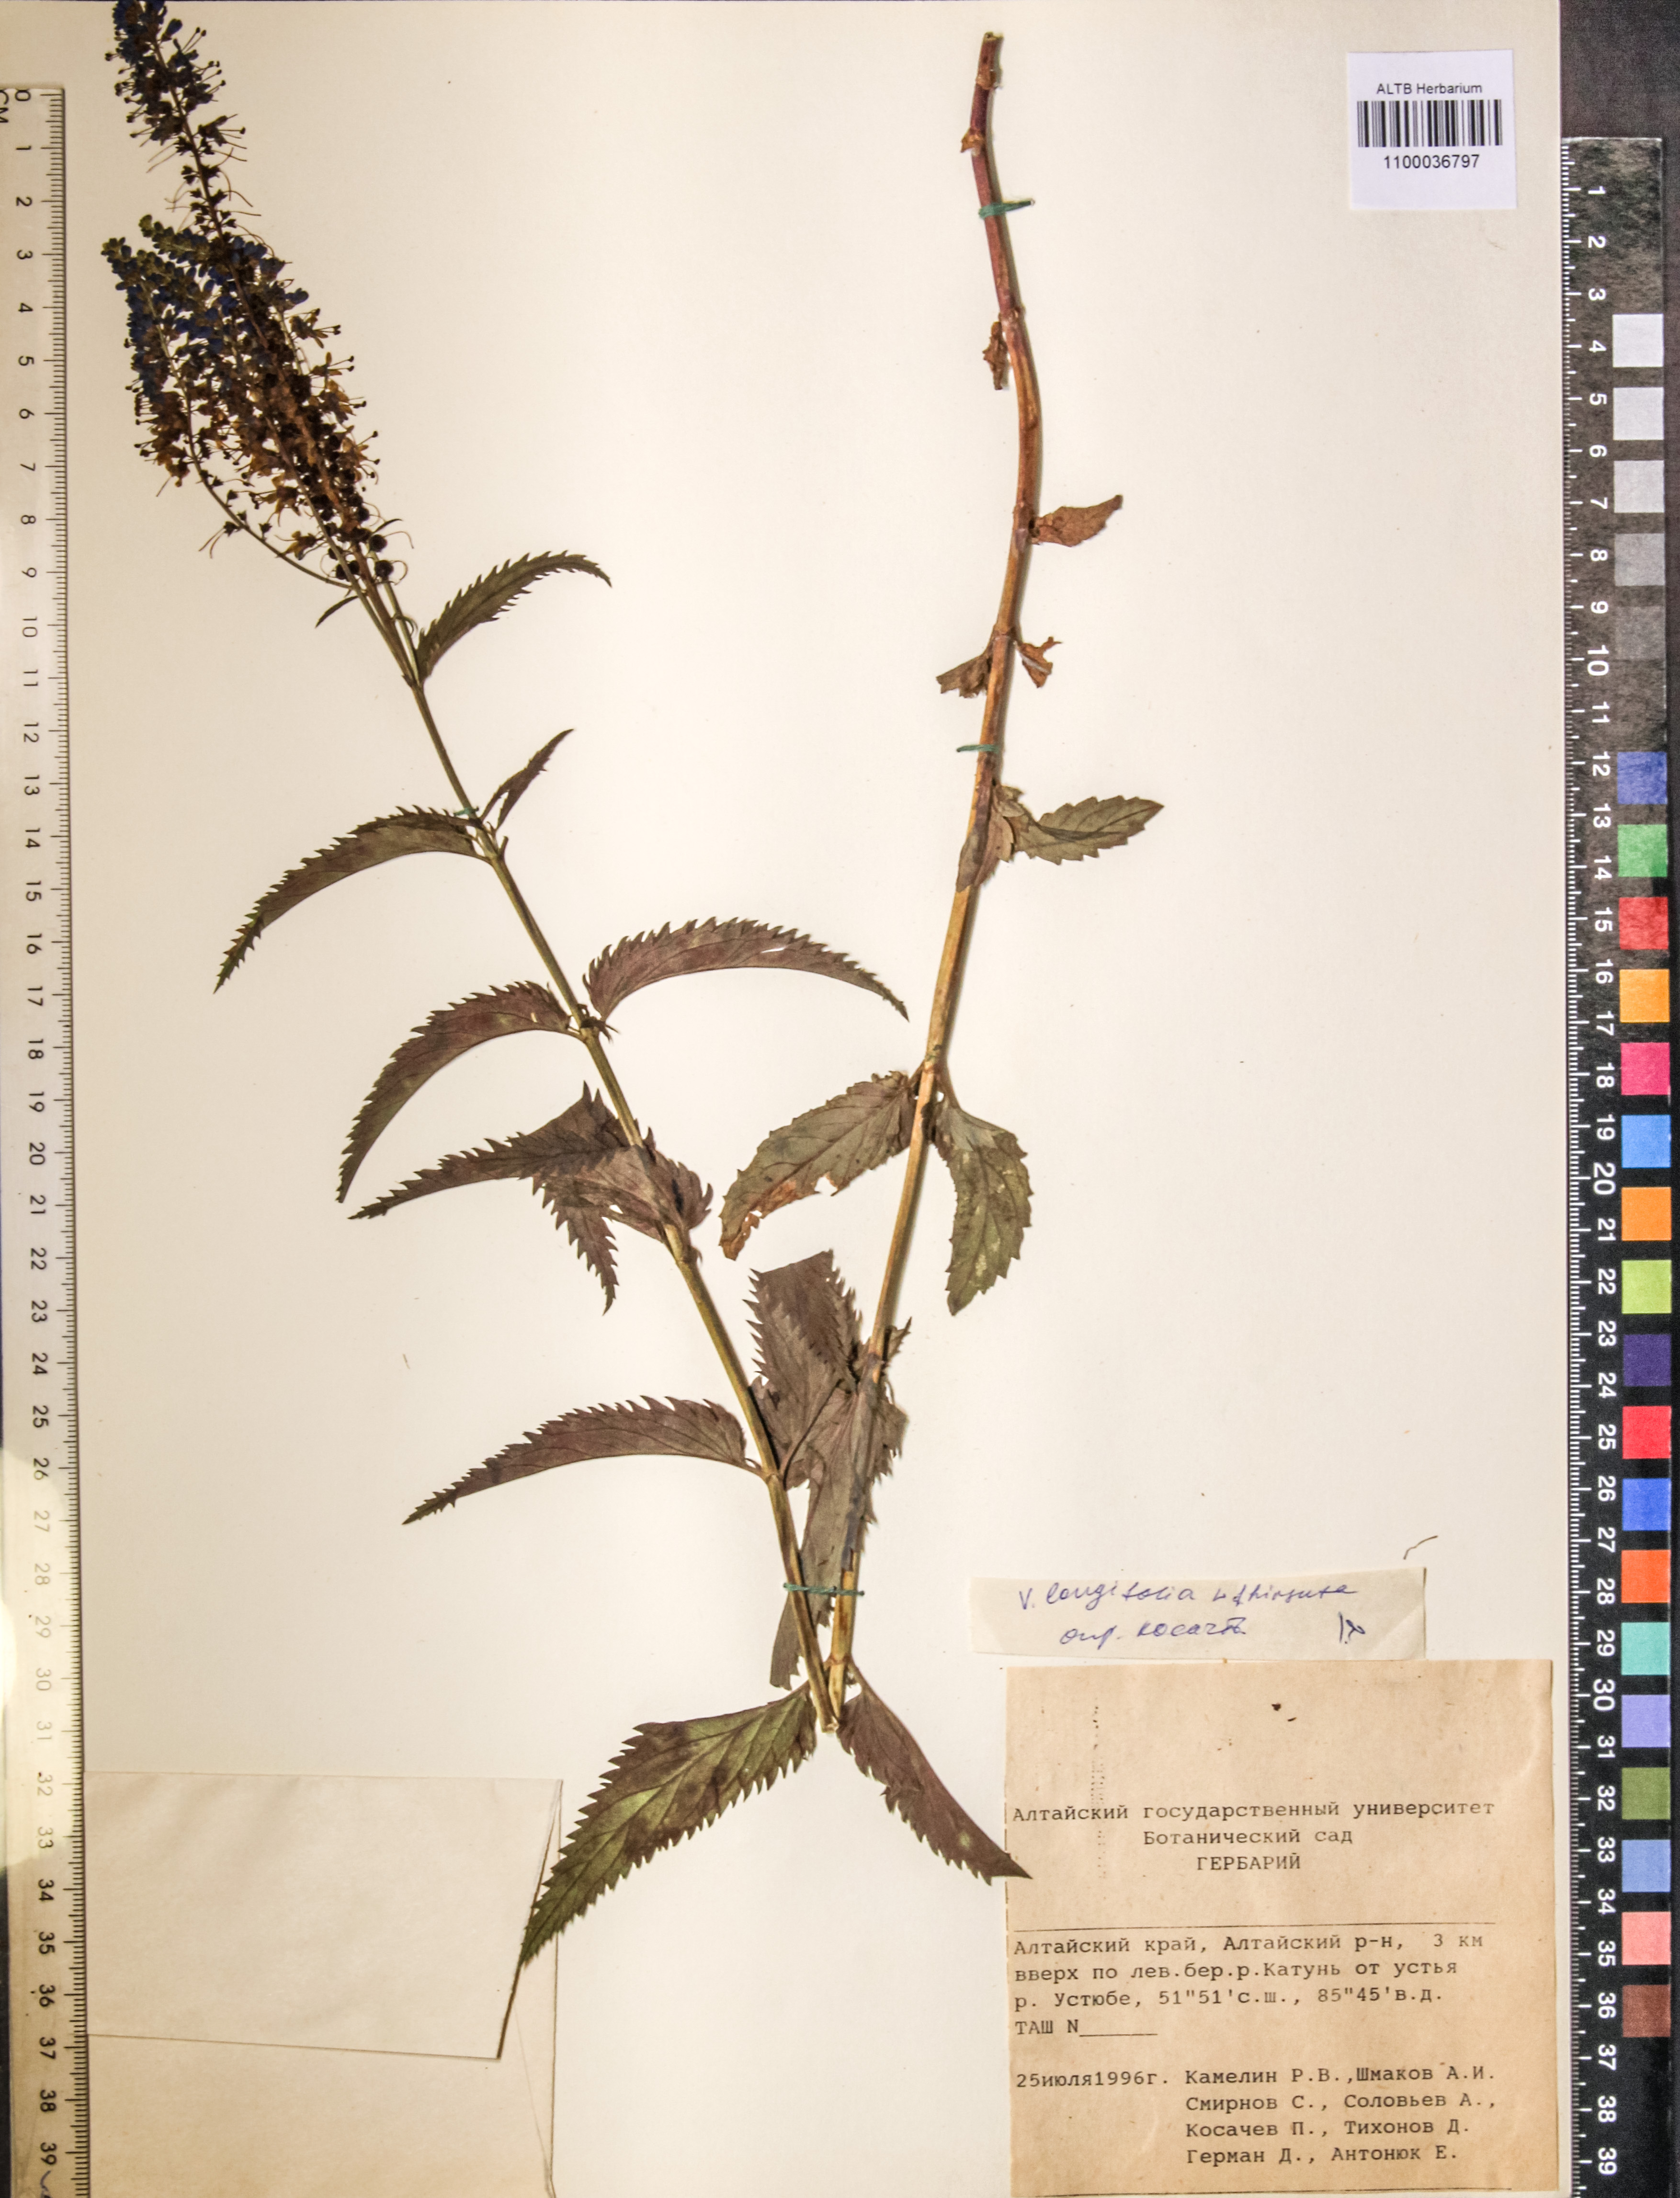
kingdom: Plantae
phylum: Tracheophyta
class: Magnoliopsida
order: Lamiales
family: Plantaginaceae
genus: Veronica
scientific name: Veronica longifolia
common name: Garden speedwell
